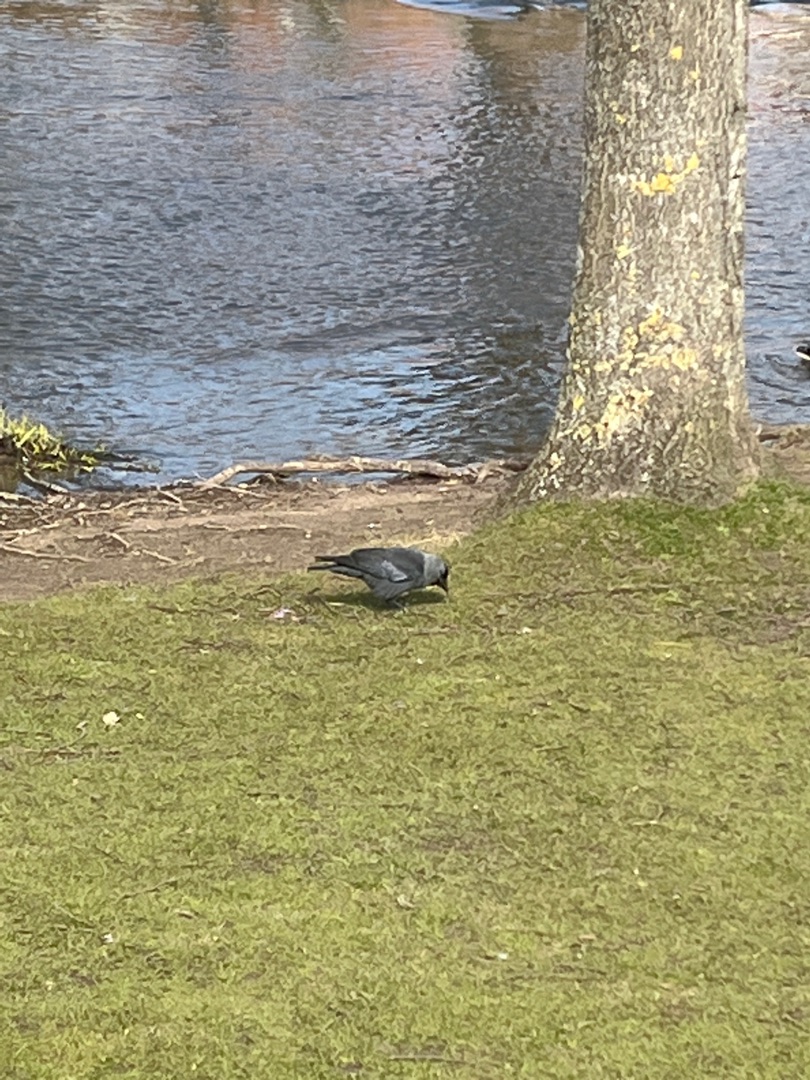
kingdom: Animalia
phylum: Chordata
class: Aves
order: Passeriformes
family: Corvidae
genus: Coloeus
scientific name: Coloeus monedula
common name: Allike
